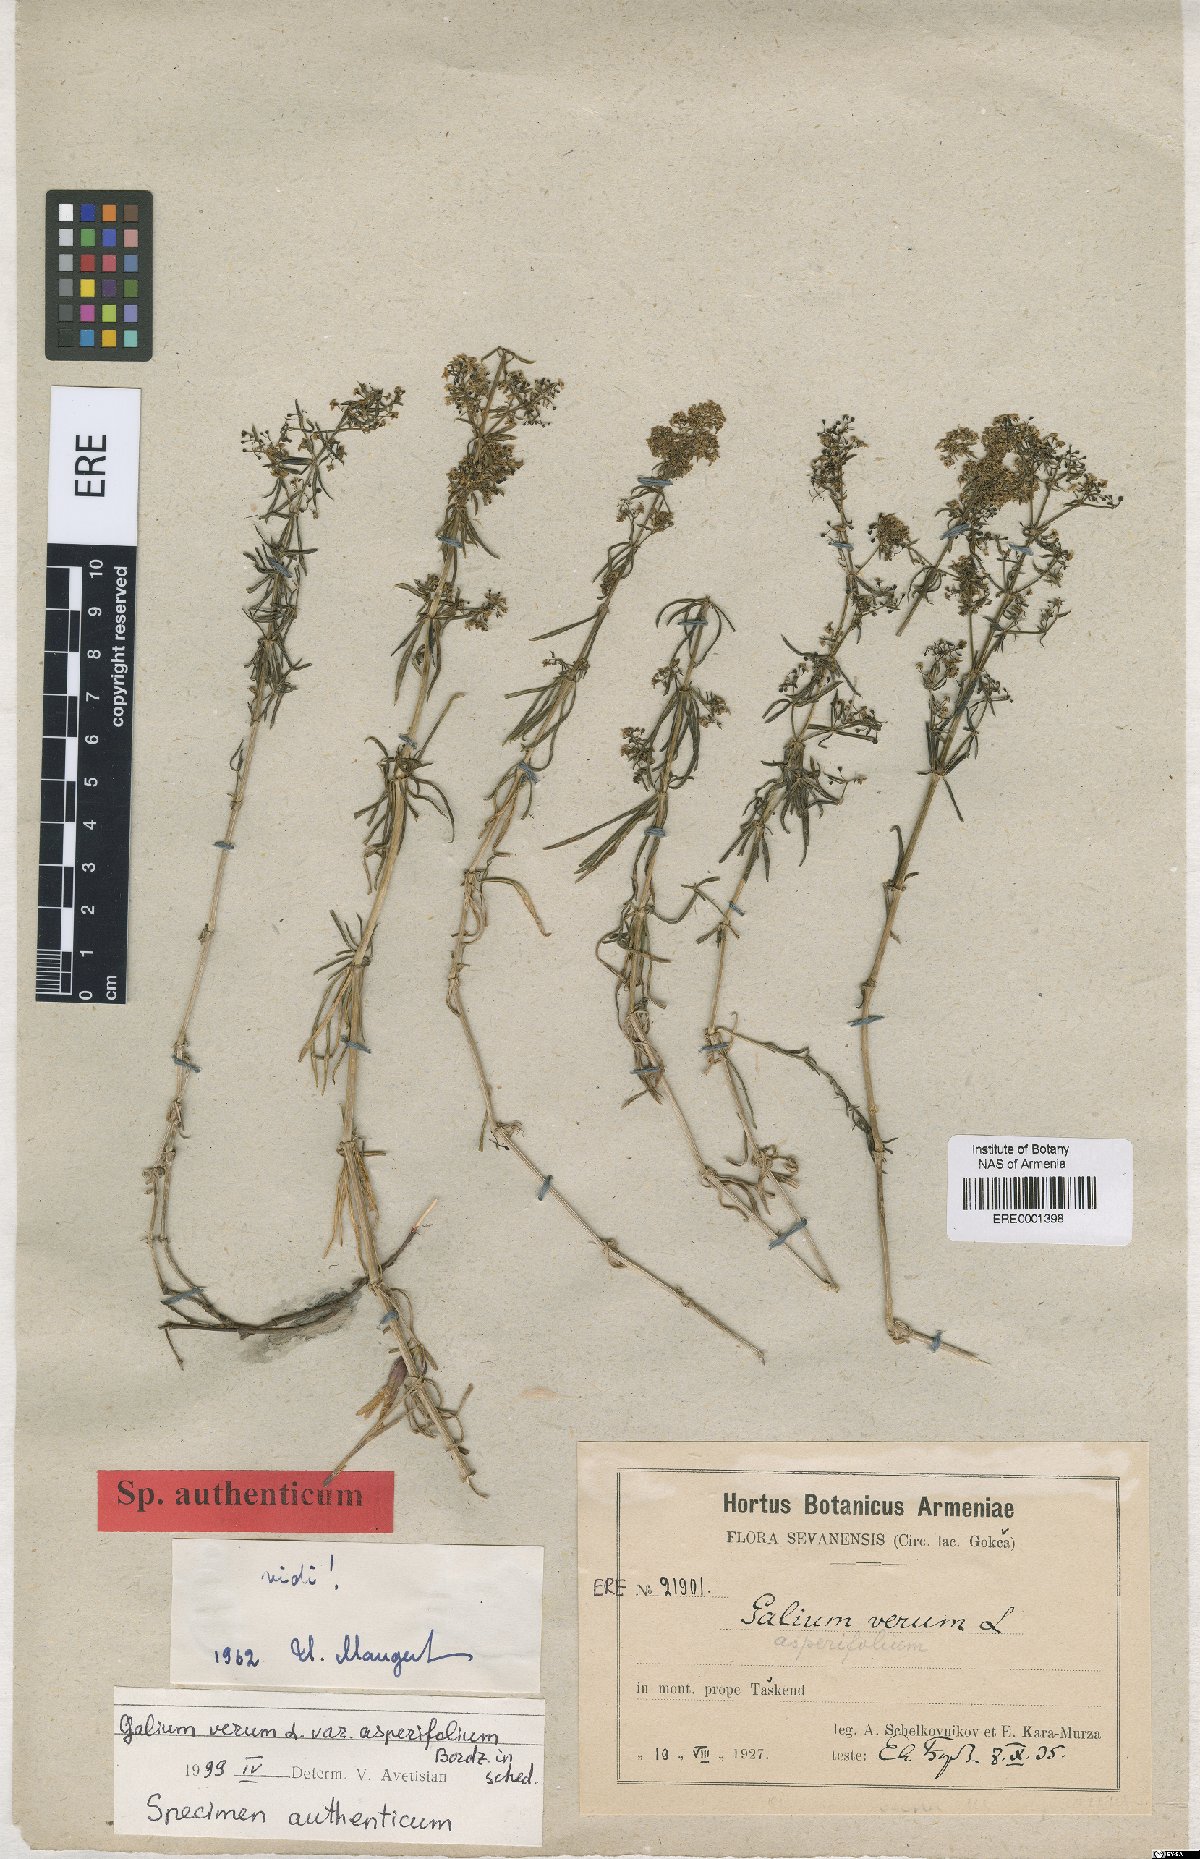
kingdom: Plantae
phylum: Tracheophyta
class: Magnoliopsida
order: Gentianales
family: Rubiaceae
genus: Galium
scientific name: Galium verum
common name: Lady's bedstraw
